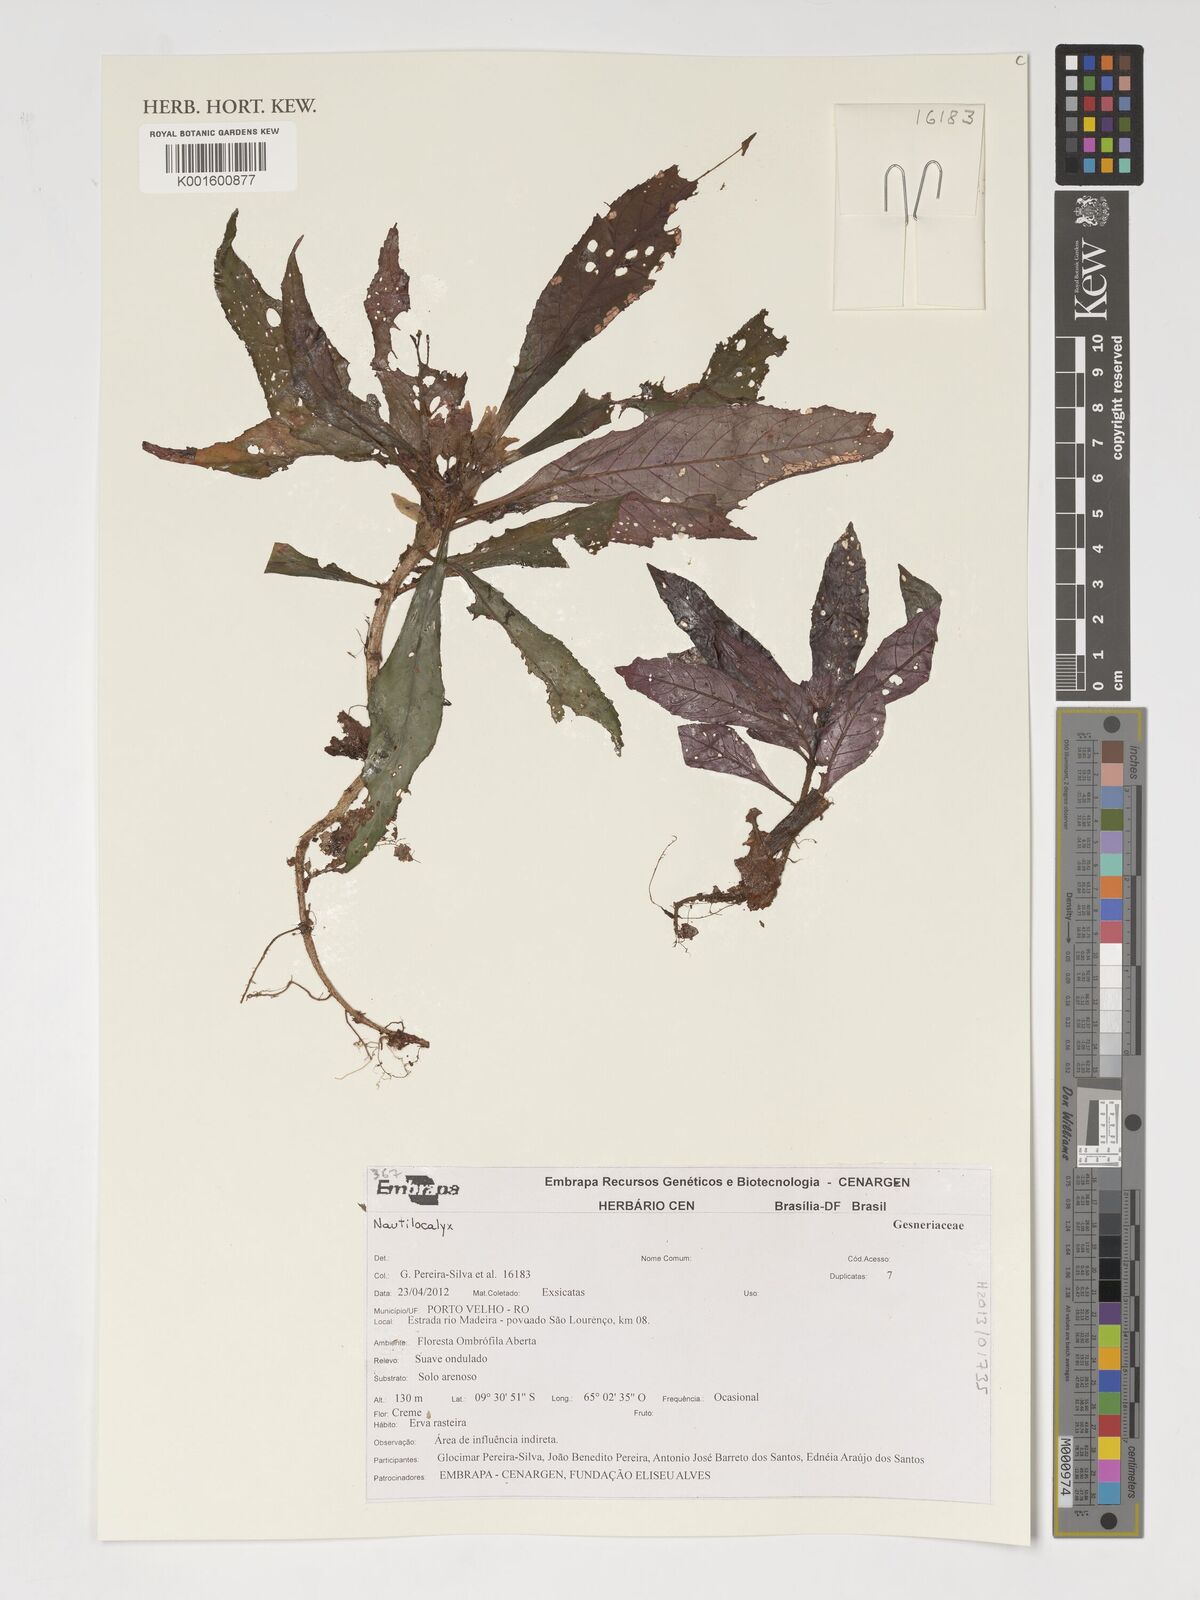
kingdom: Plantae
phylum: Tracheophyta
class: Magnoliopsida
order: Lamiales
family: Gesneriaceae
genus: Nautilocalyx
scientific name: Nautilocalyx
